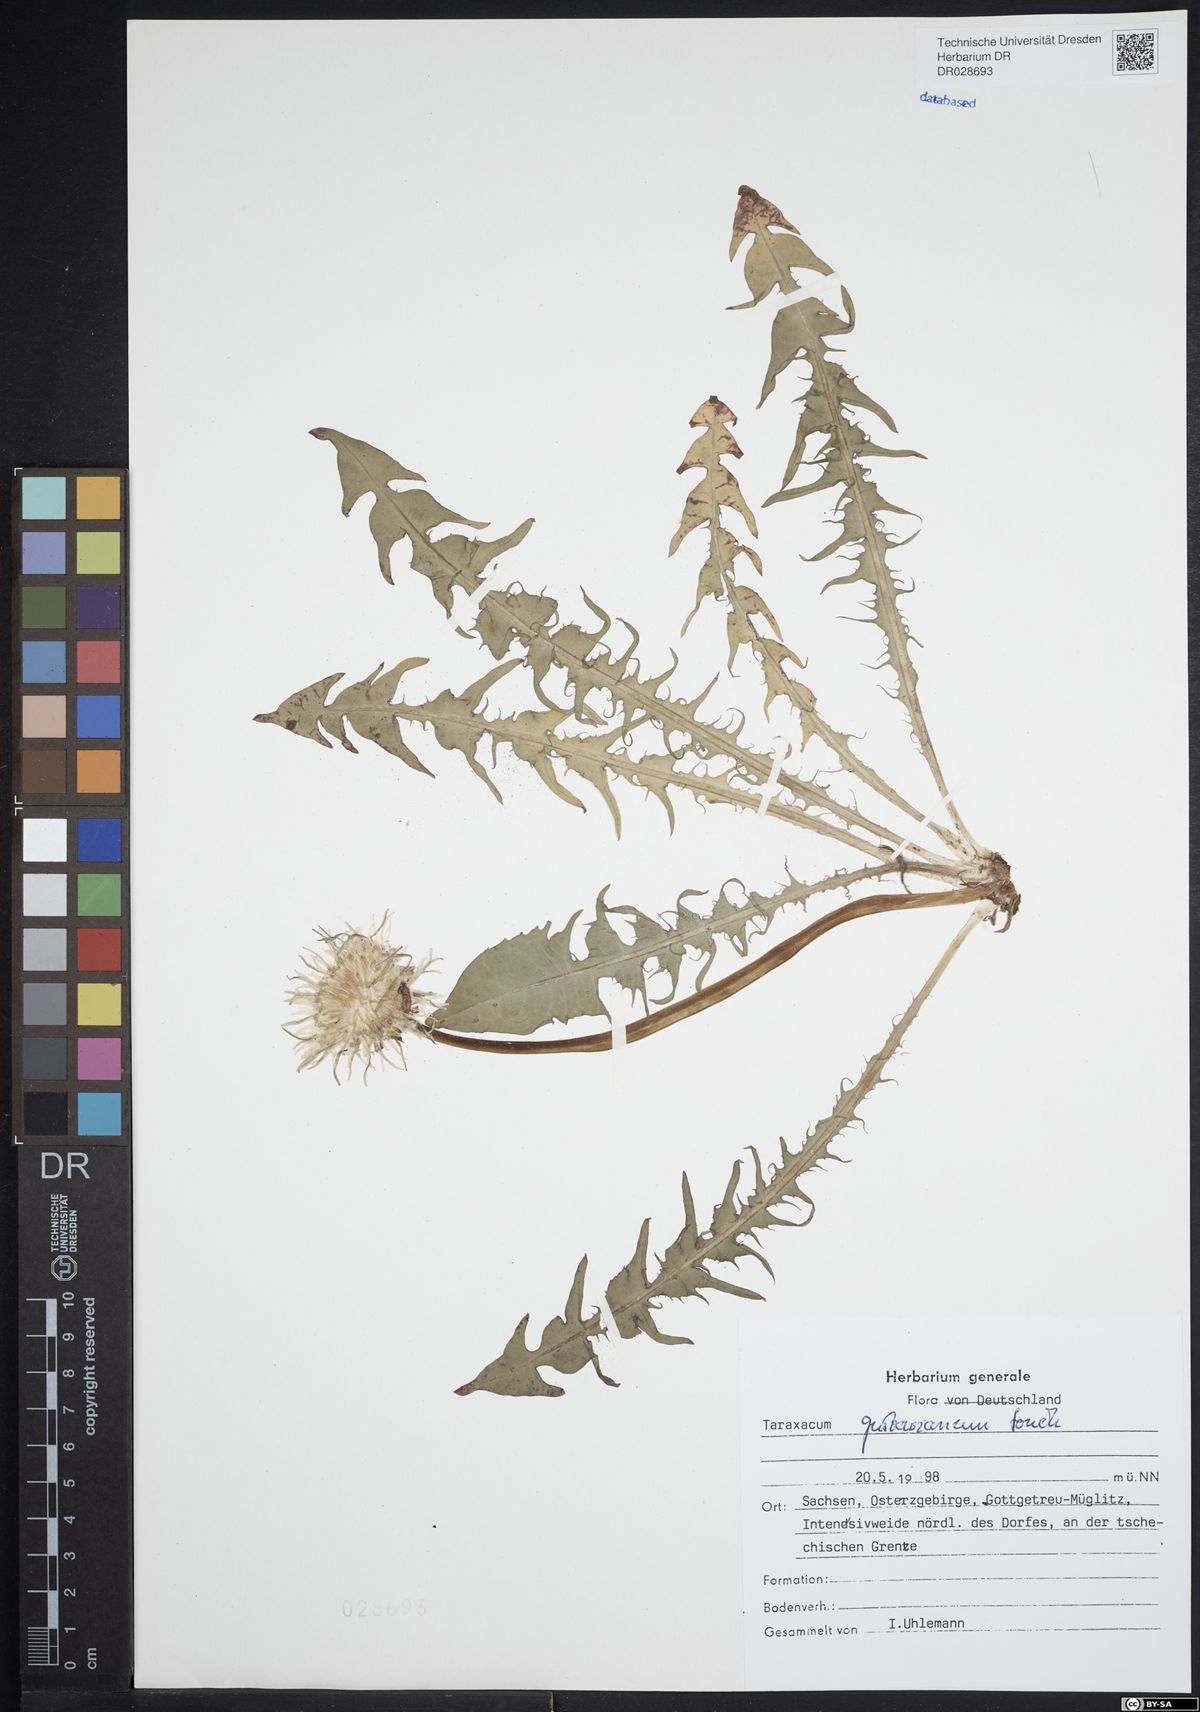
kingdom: Plantae
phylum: Tracheophyta
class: Magnoliopsida
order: Asterales
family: Asteraceae
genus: Taraxacum
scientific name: Taraxacum gustavianum
